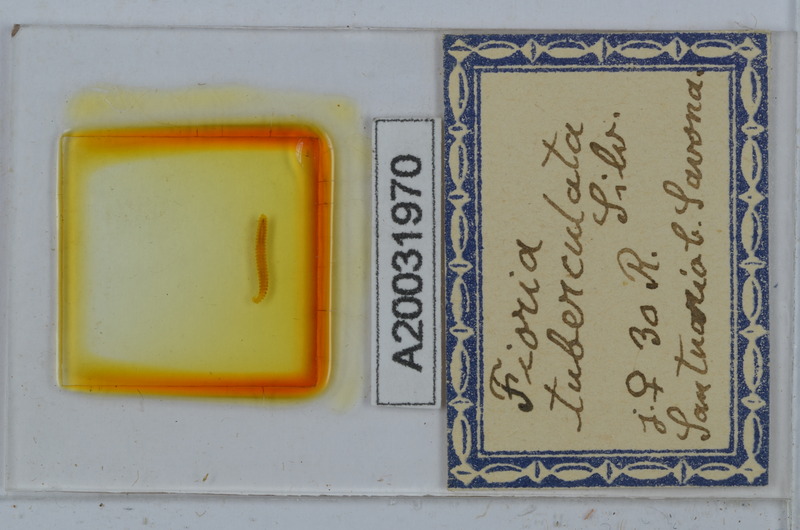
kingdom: Animalia
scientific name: Animalia
